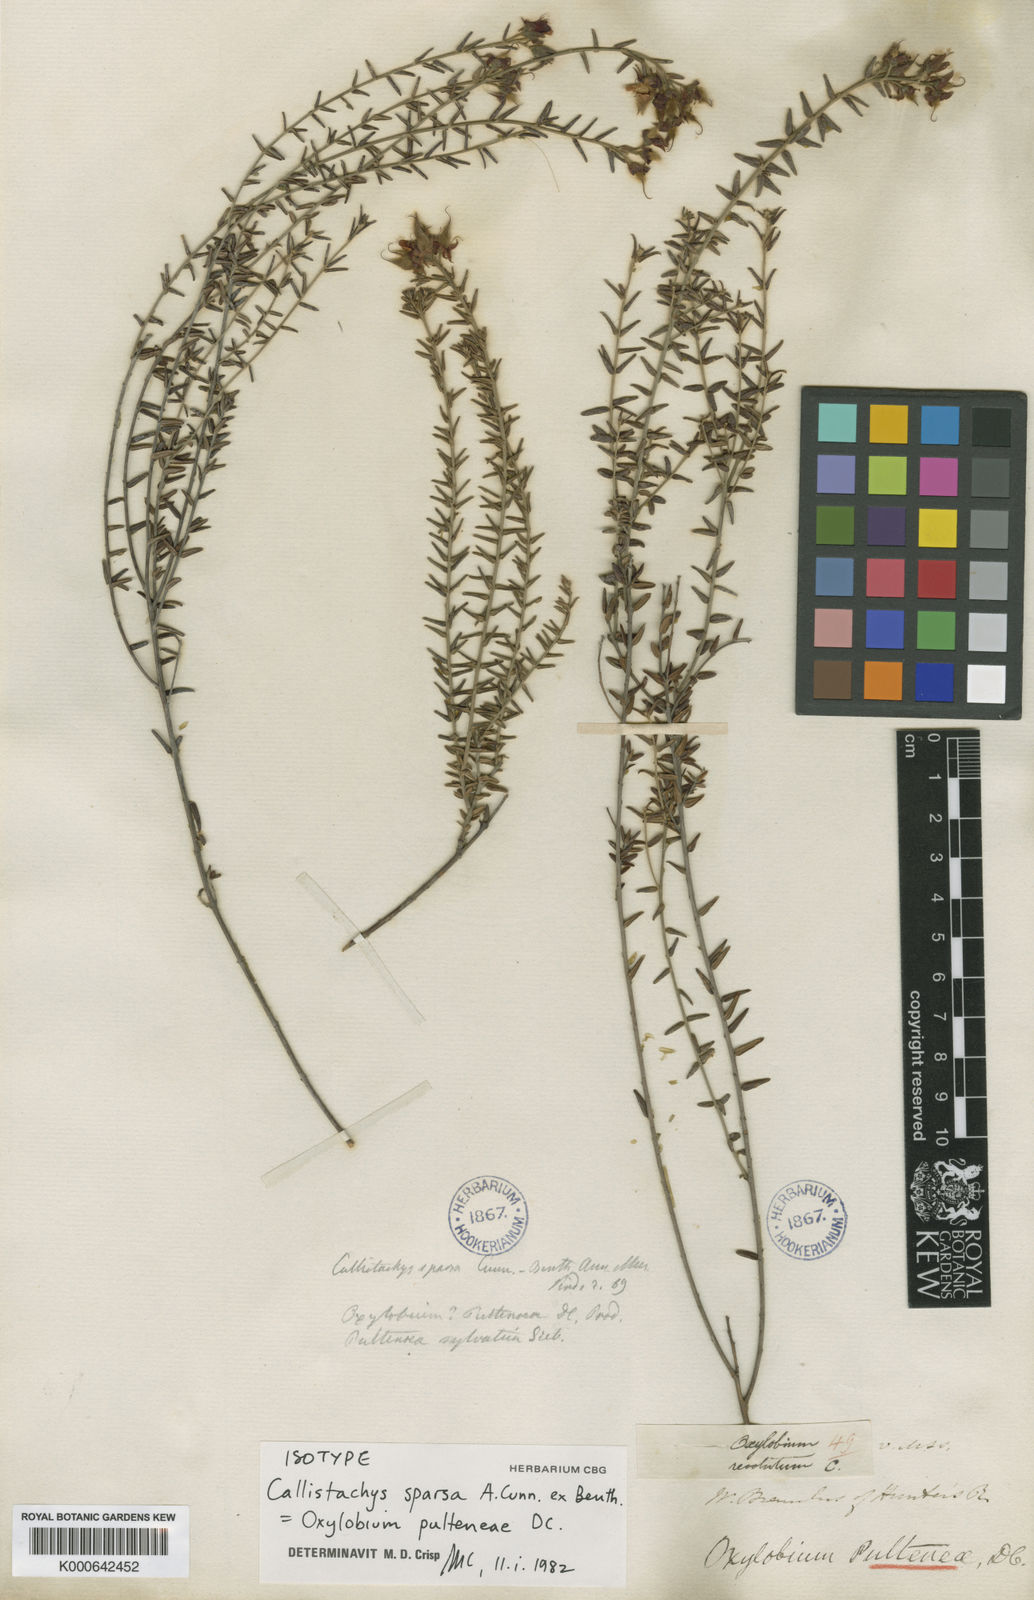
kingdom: Plantae
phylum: Tracheophyta
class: Magnoliopsida
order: Fabales
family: Fabaceae
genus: Oxylobium
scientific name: Oxylobium pulteneae
